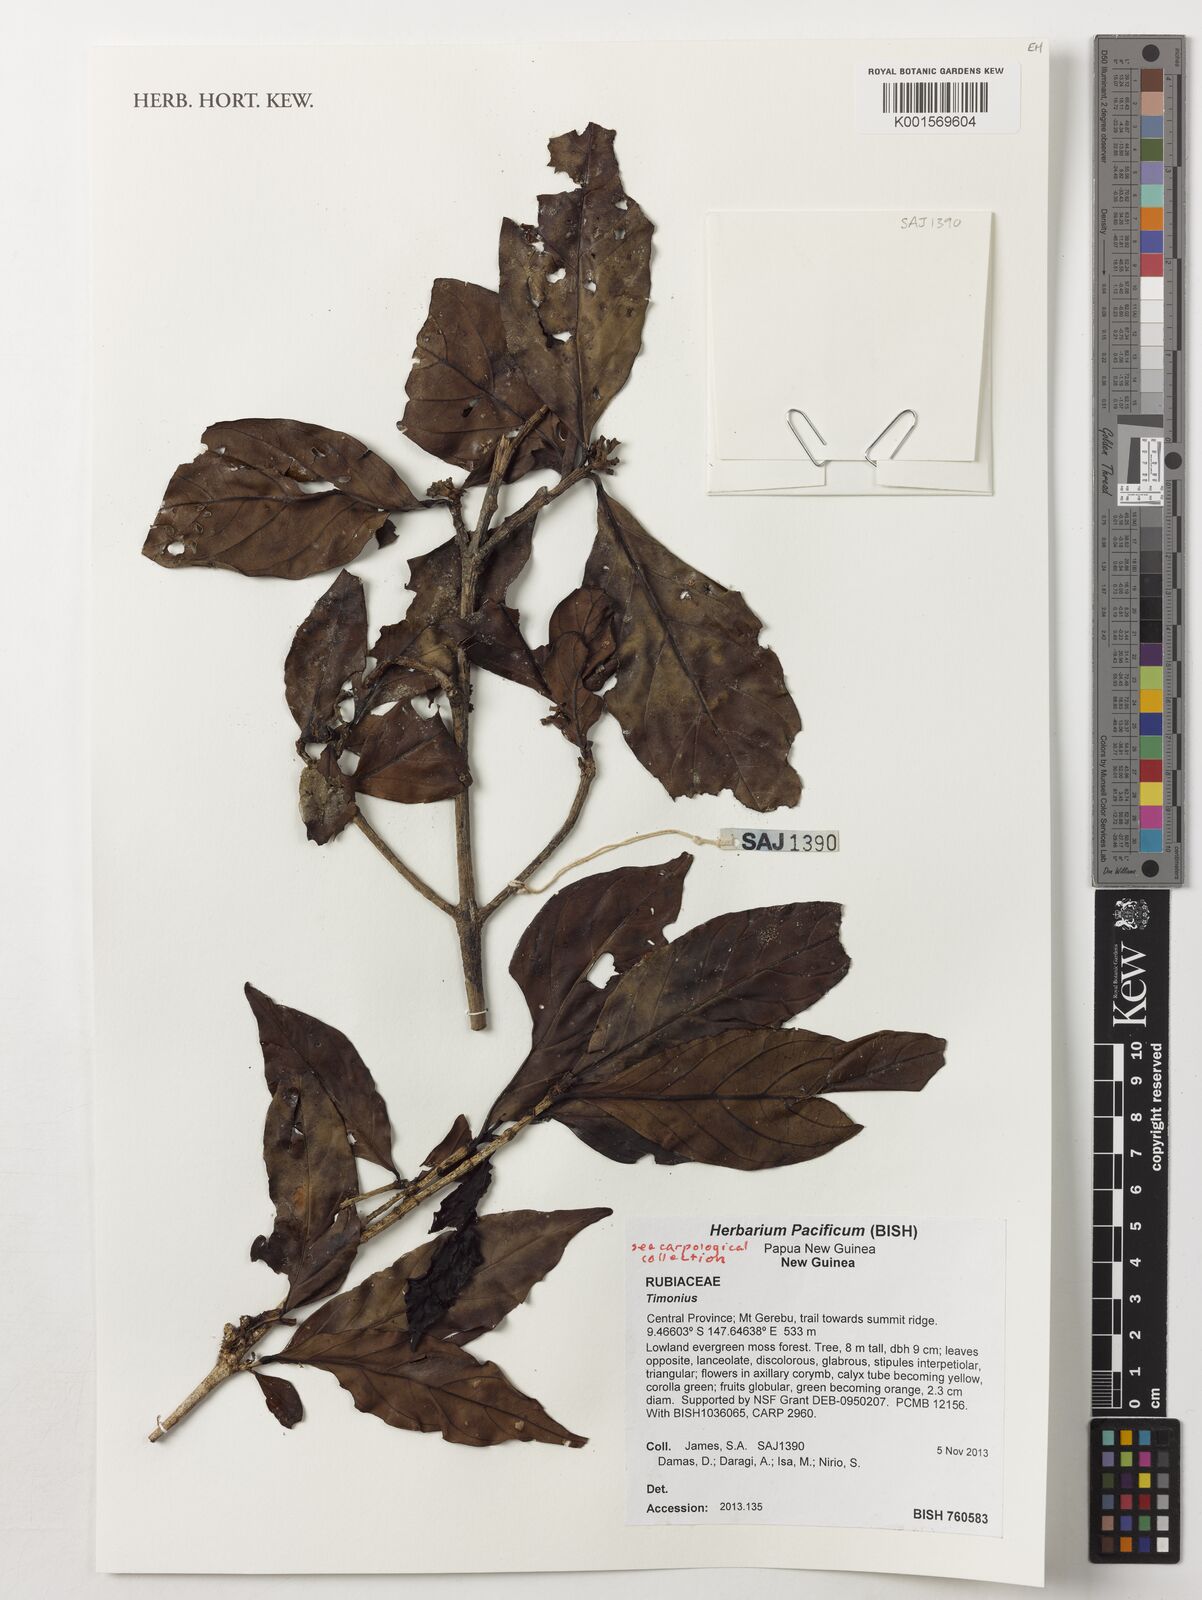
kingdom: Plantae
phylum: Tracheophyta
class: Magnoliopsida
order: Gentianales
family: Rubiaceae
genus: Timonius
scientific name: Timonius
